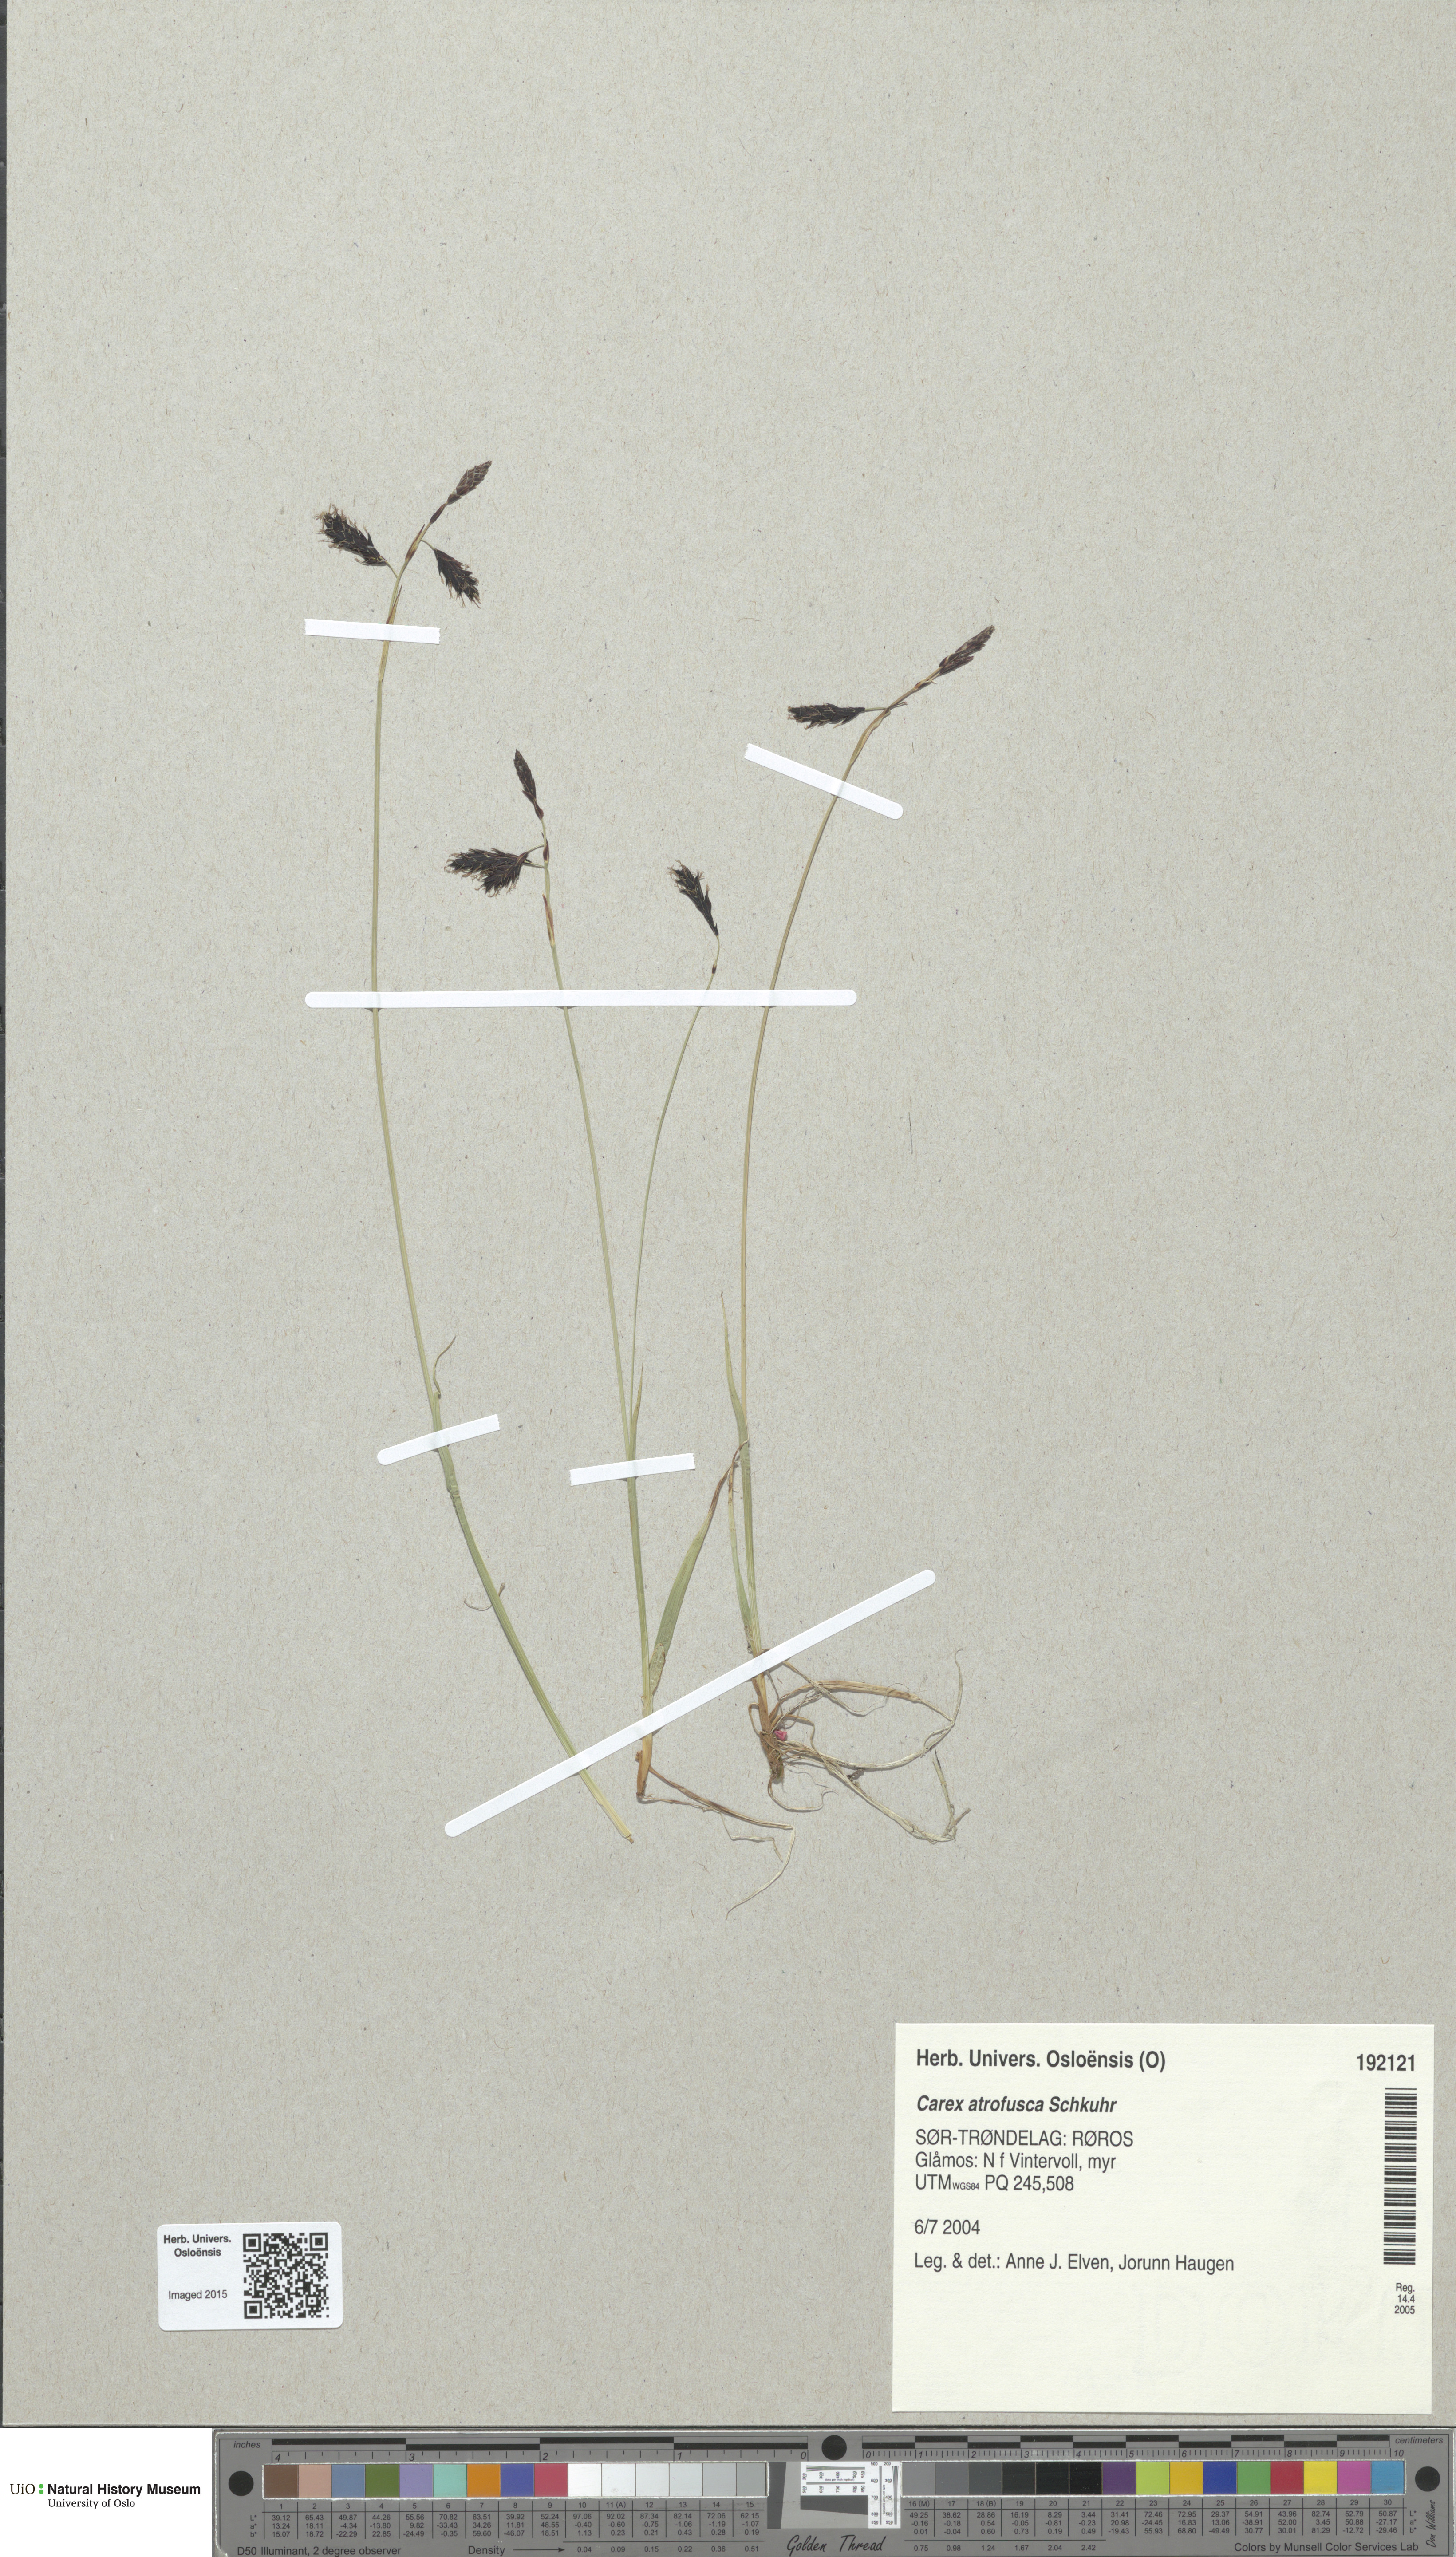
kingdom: Plantae
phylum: Tracheophyta
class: Liliopsida
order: Poales
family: Cyperaceae
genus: Carex
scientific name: Carex atrofusca
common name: Scorched alpine-sedge
